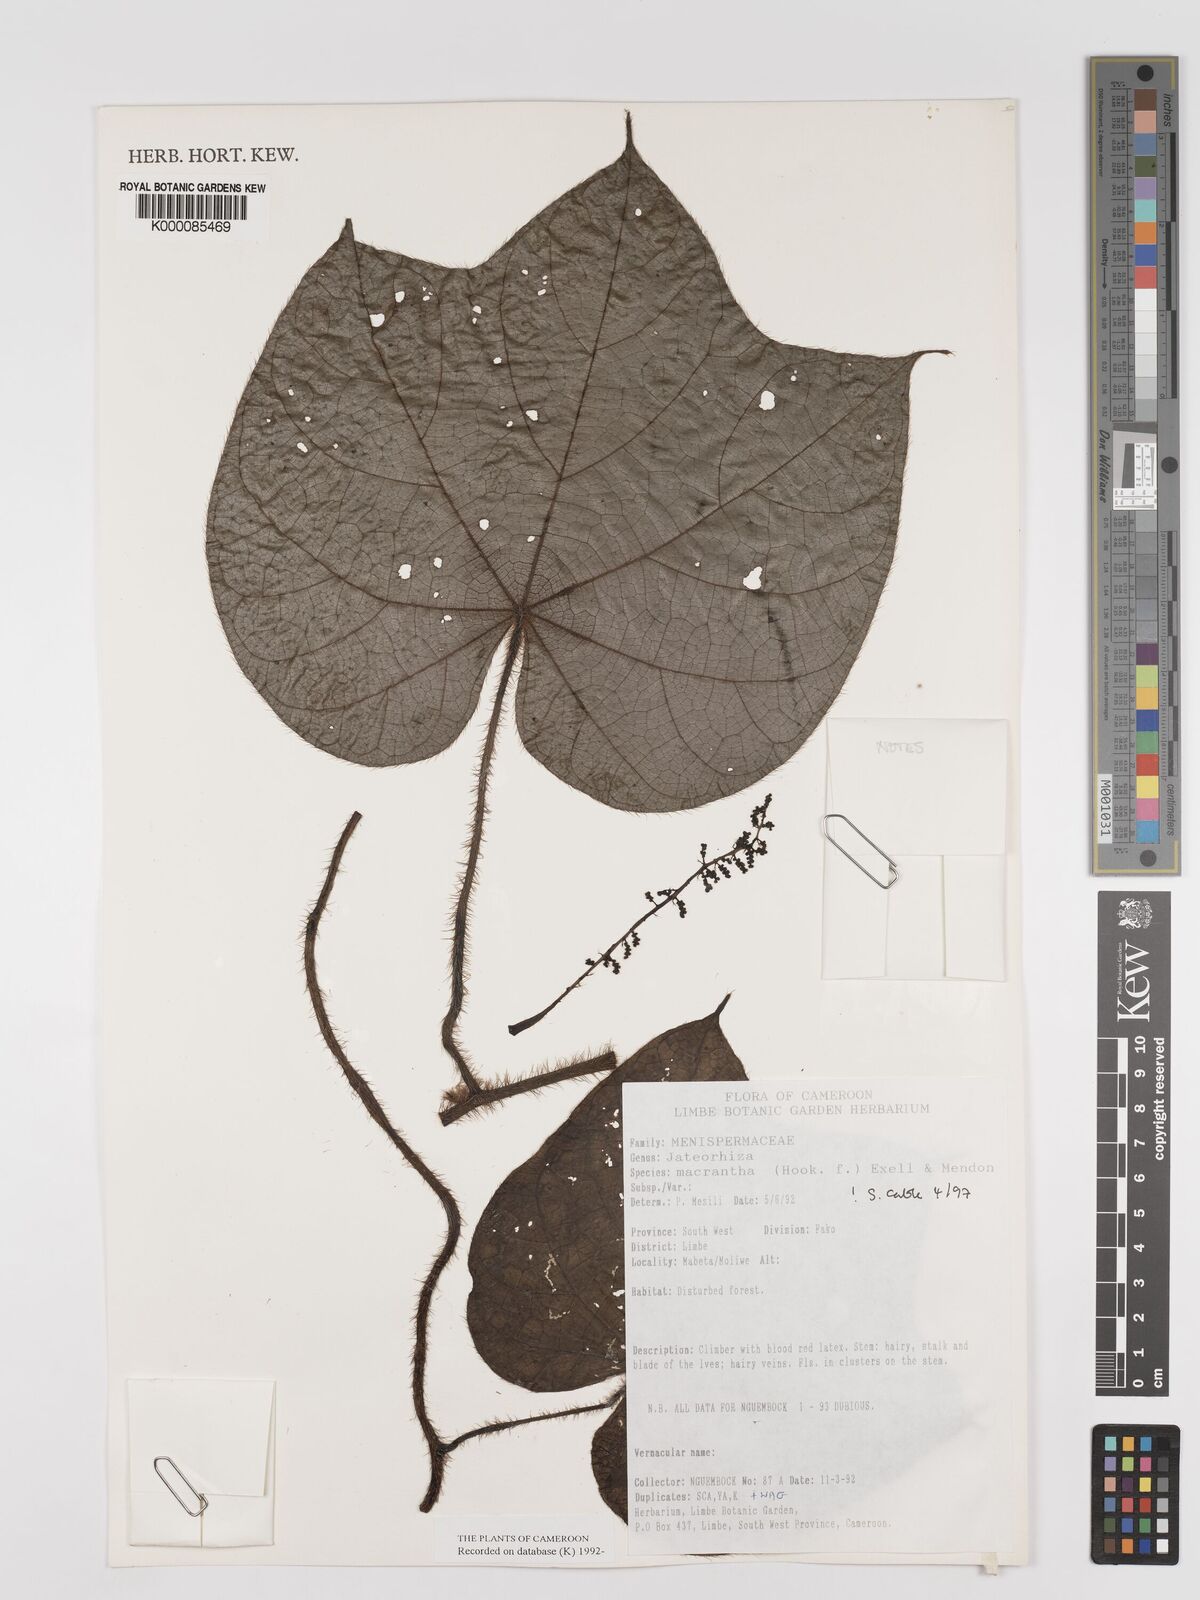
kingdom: Plantae
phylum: Tracheophyta
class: Magnoliopsida
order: Ranunculales
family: Menispermaceae
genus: Jateorhiza
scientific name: Jateorhiza
